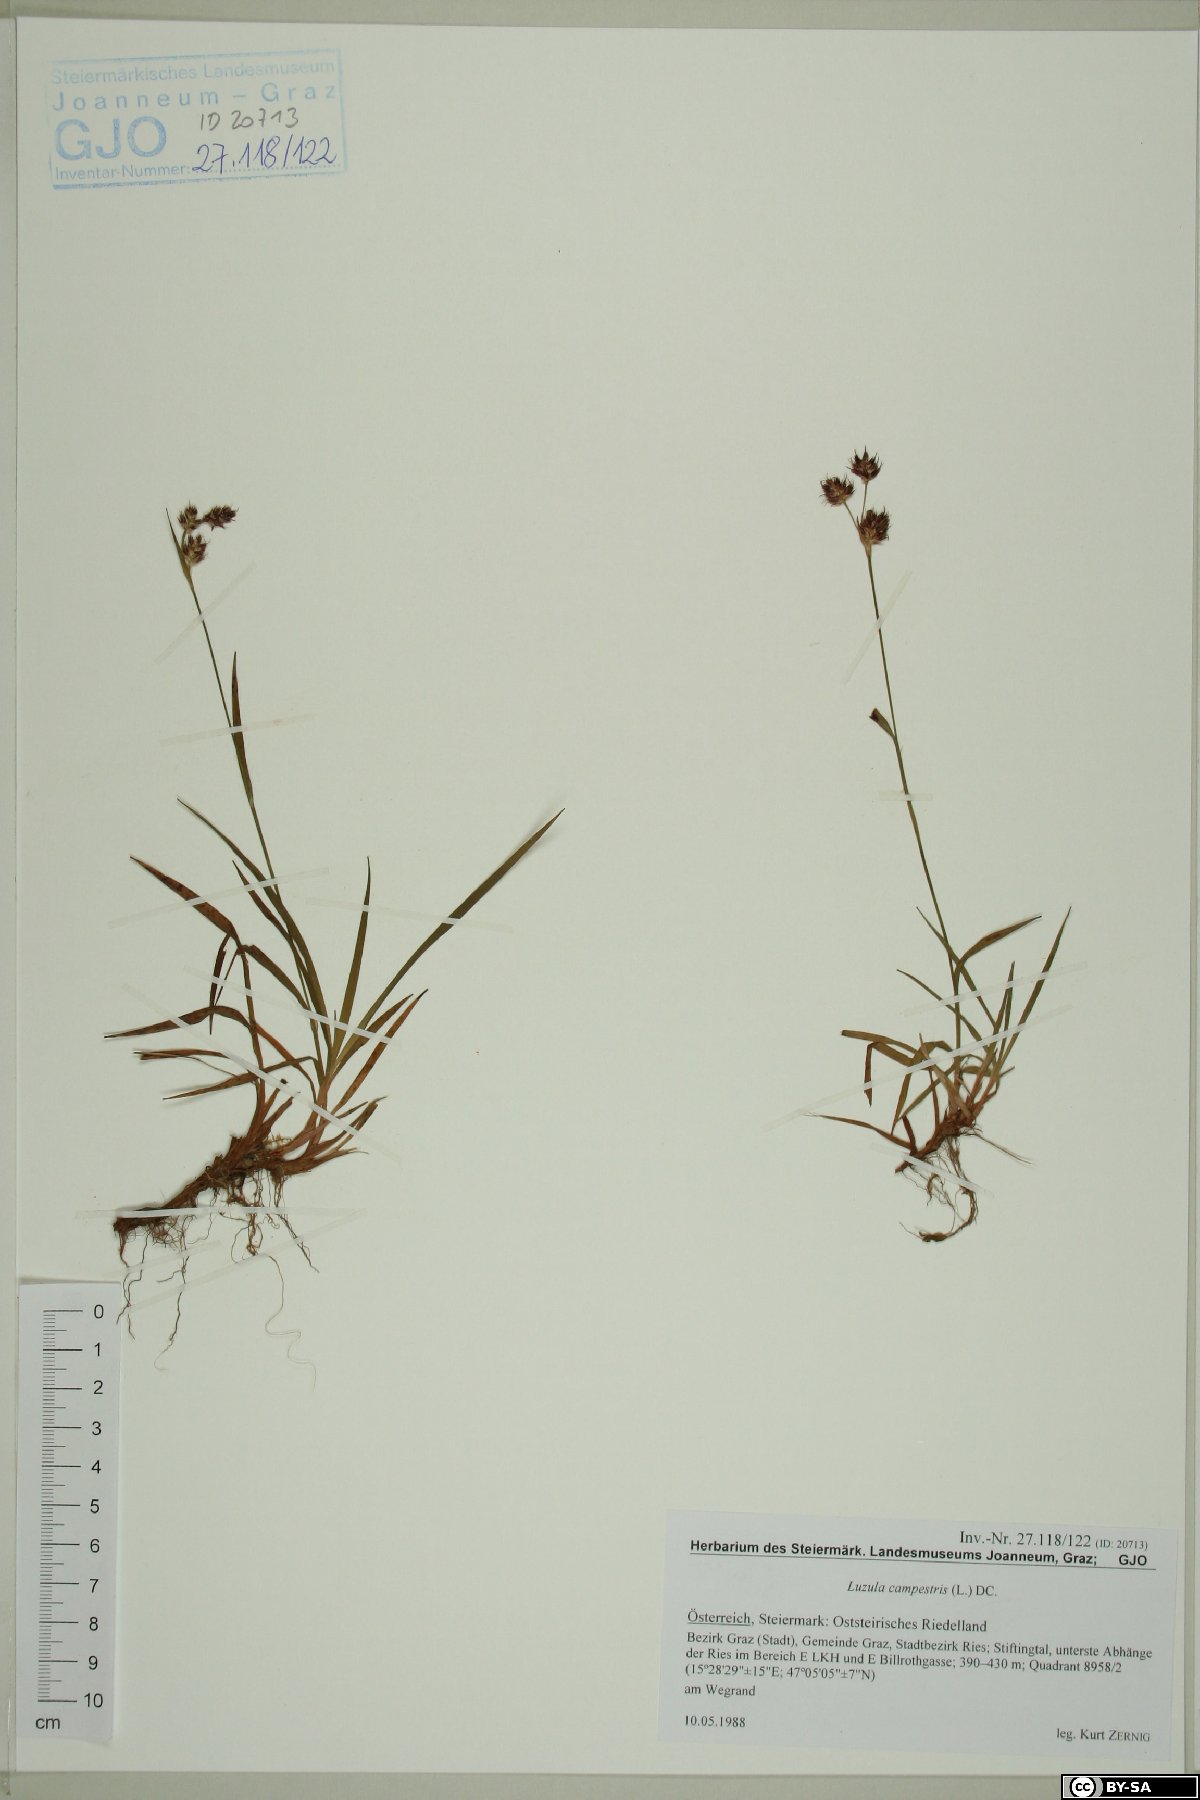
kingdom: Plantae
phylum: Tracheophyta
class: Liliopsida
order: Poales
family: Juncaceae
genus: Luzula
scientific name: Luzula campestris
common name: Field wood-rush
